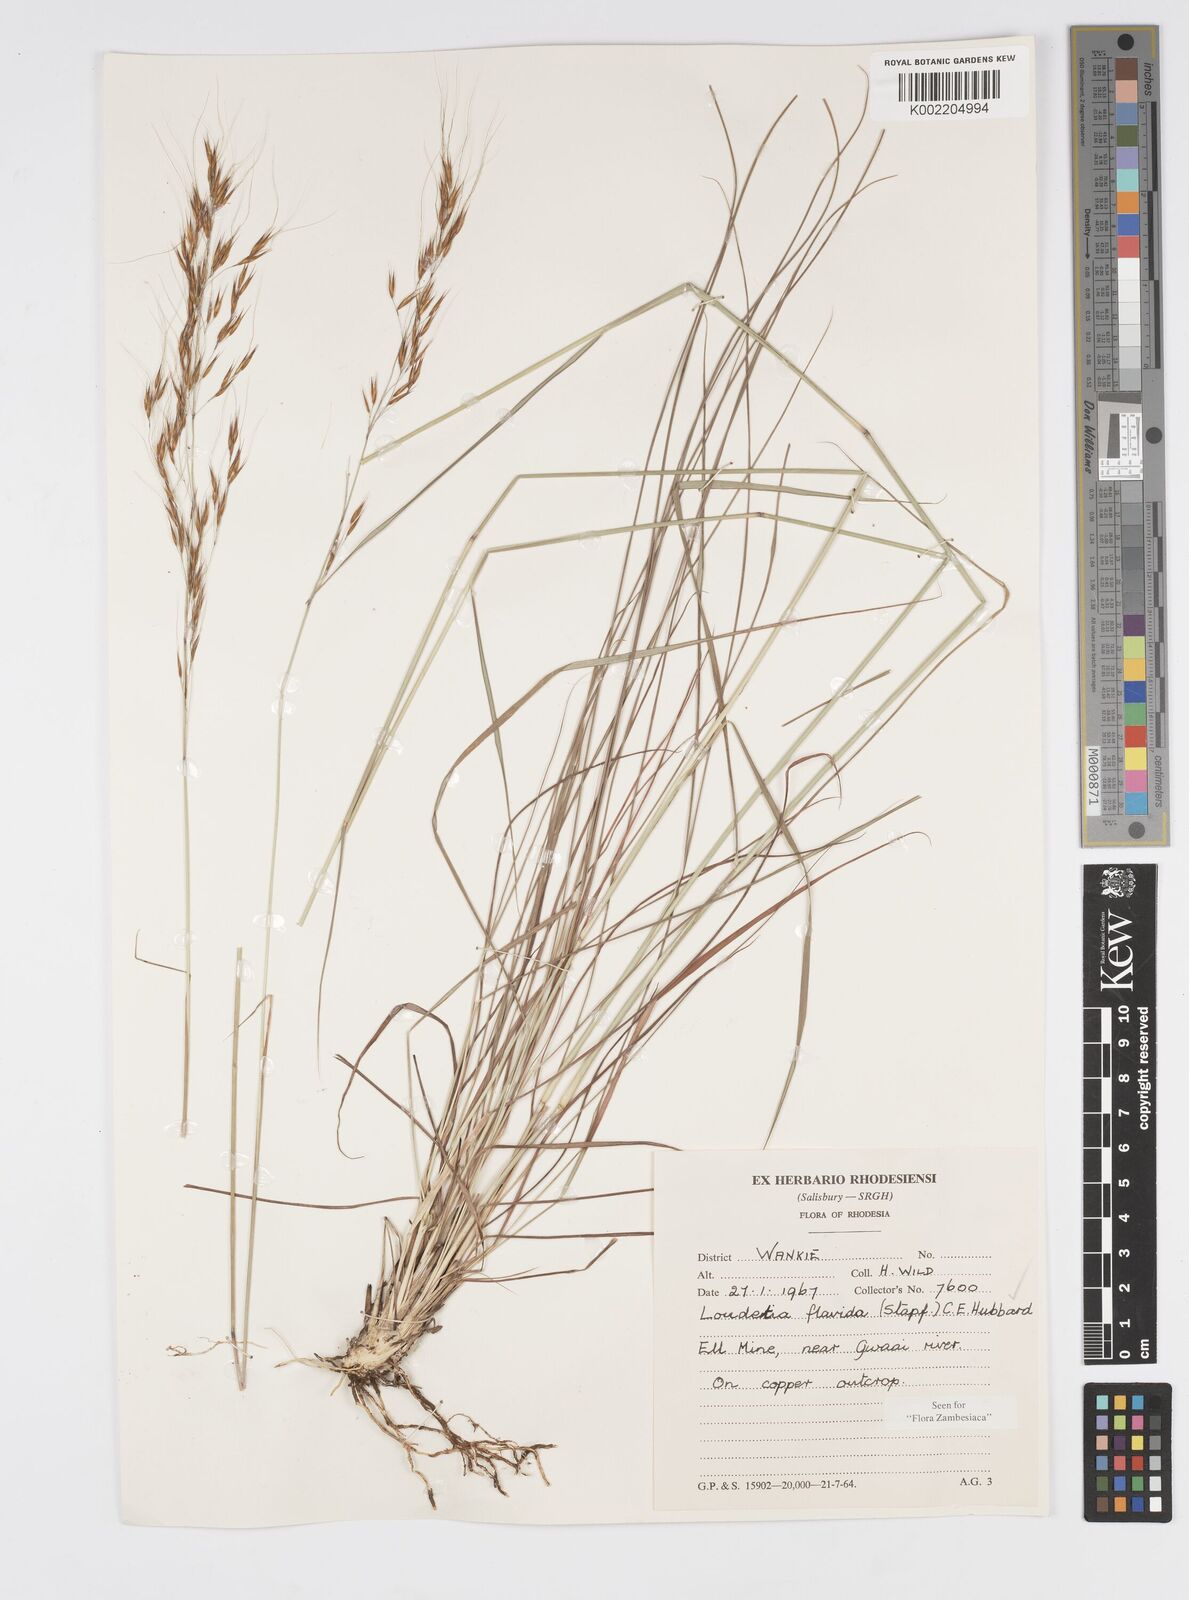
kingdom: Plantae
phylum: Tracheophyta
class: Liliopsida
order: Poales
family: Poaceae
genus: Loudetia
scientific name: Loudetia flavida
